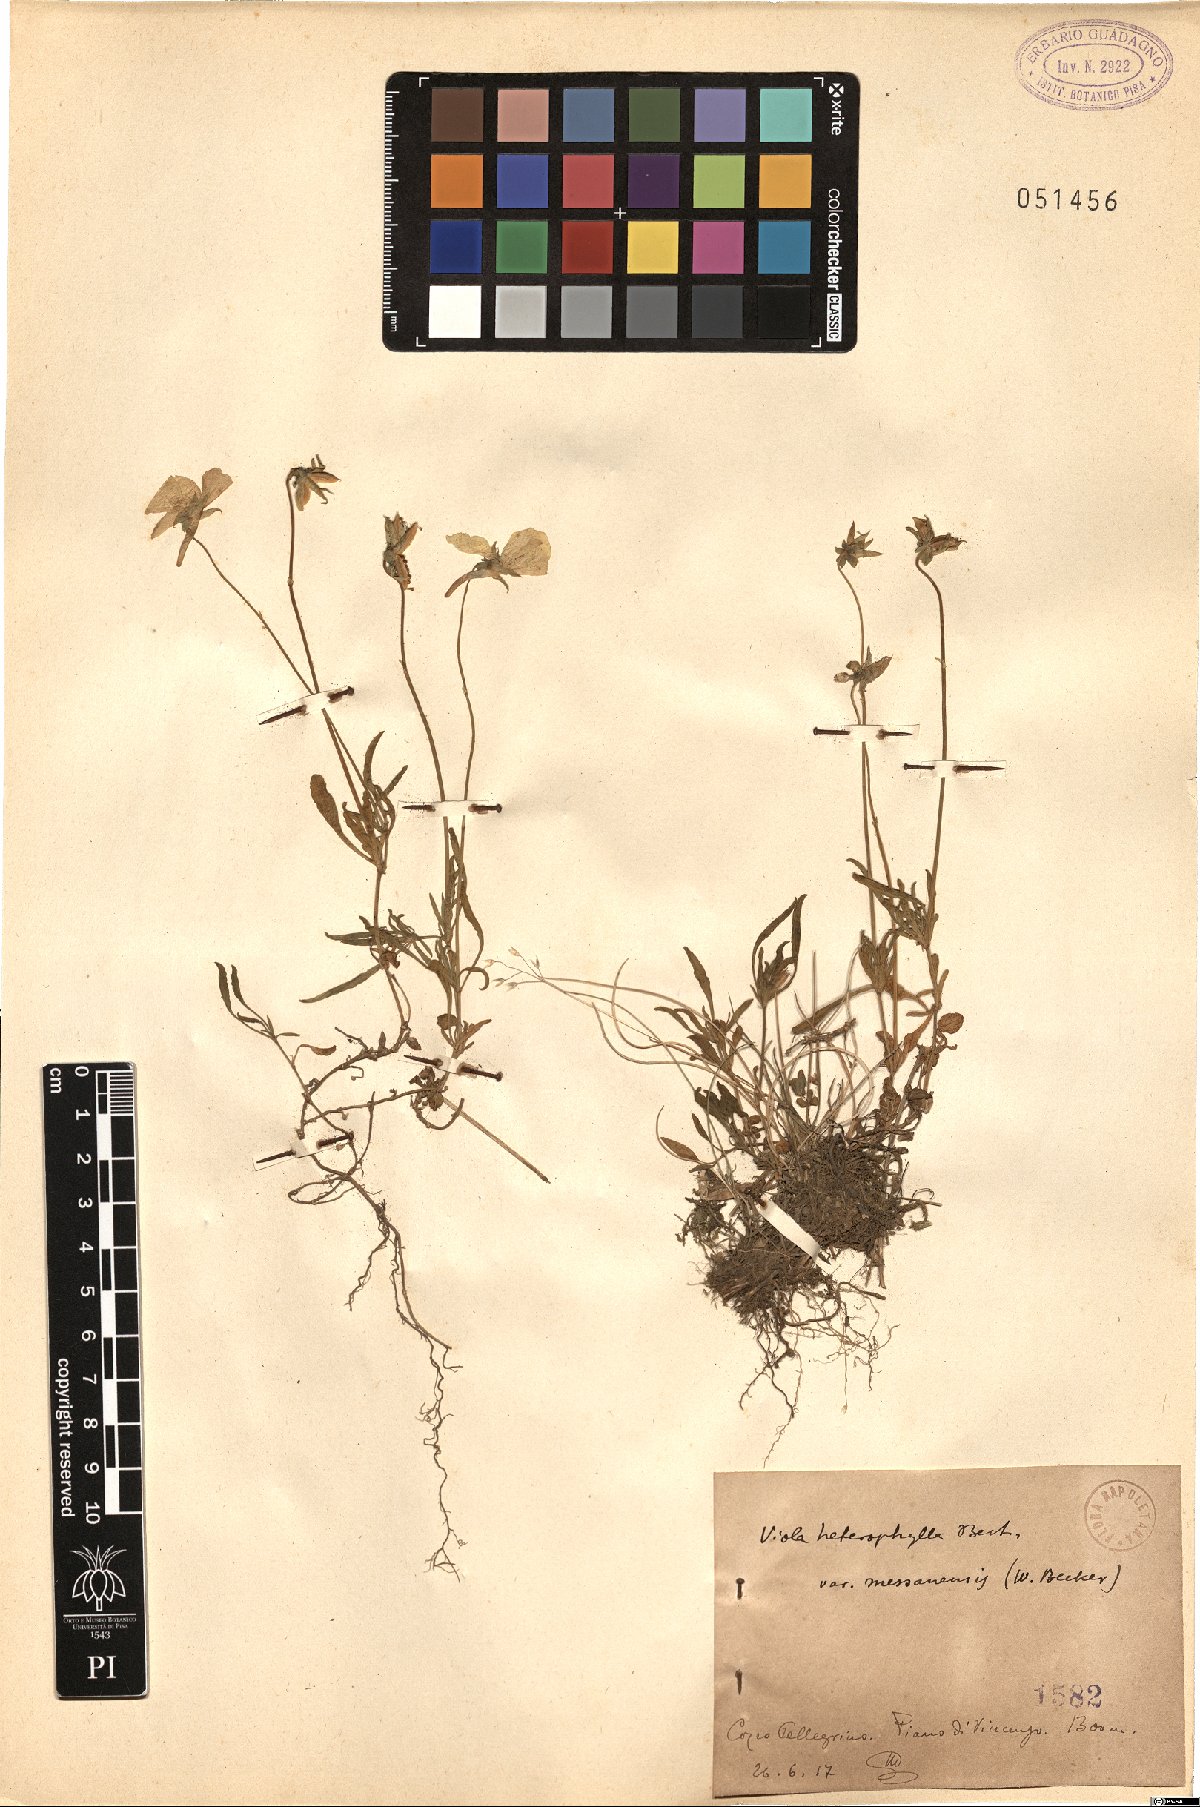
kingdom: Plantae
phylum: Tracheophyta
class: Magnoliopsida
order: Malpighiales
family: Violaceae
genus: Viola
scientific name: Viola aethnensis
